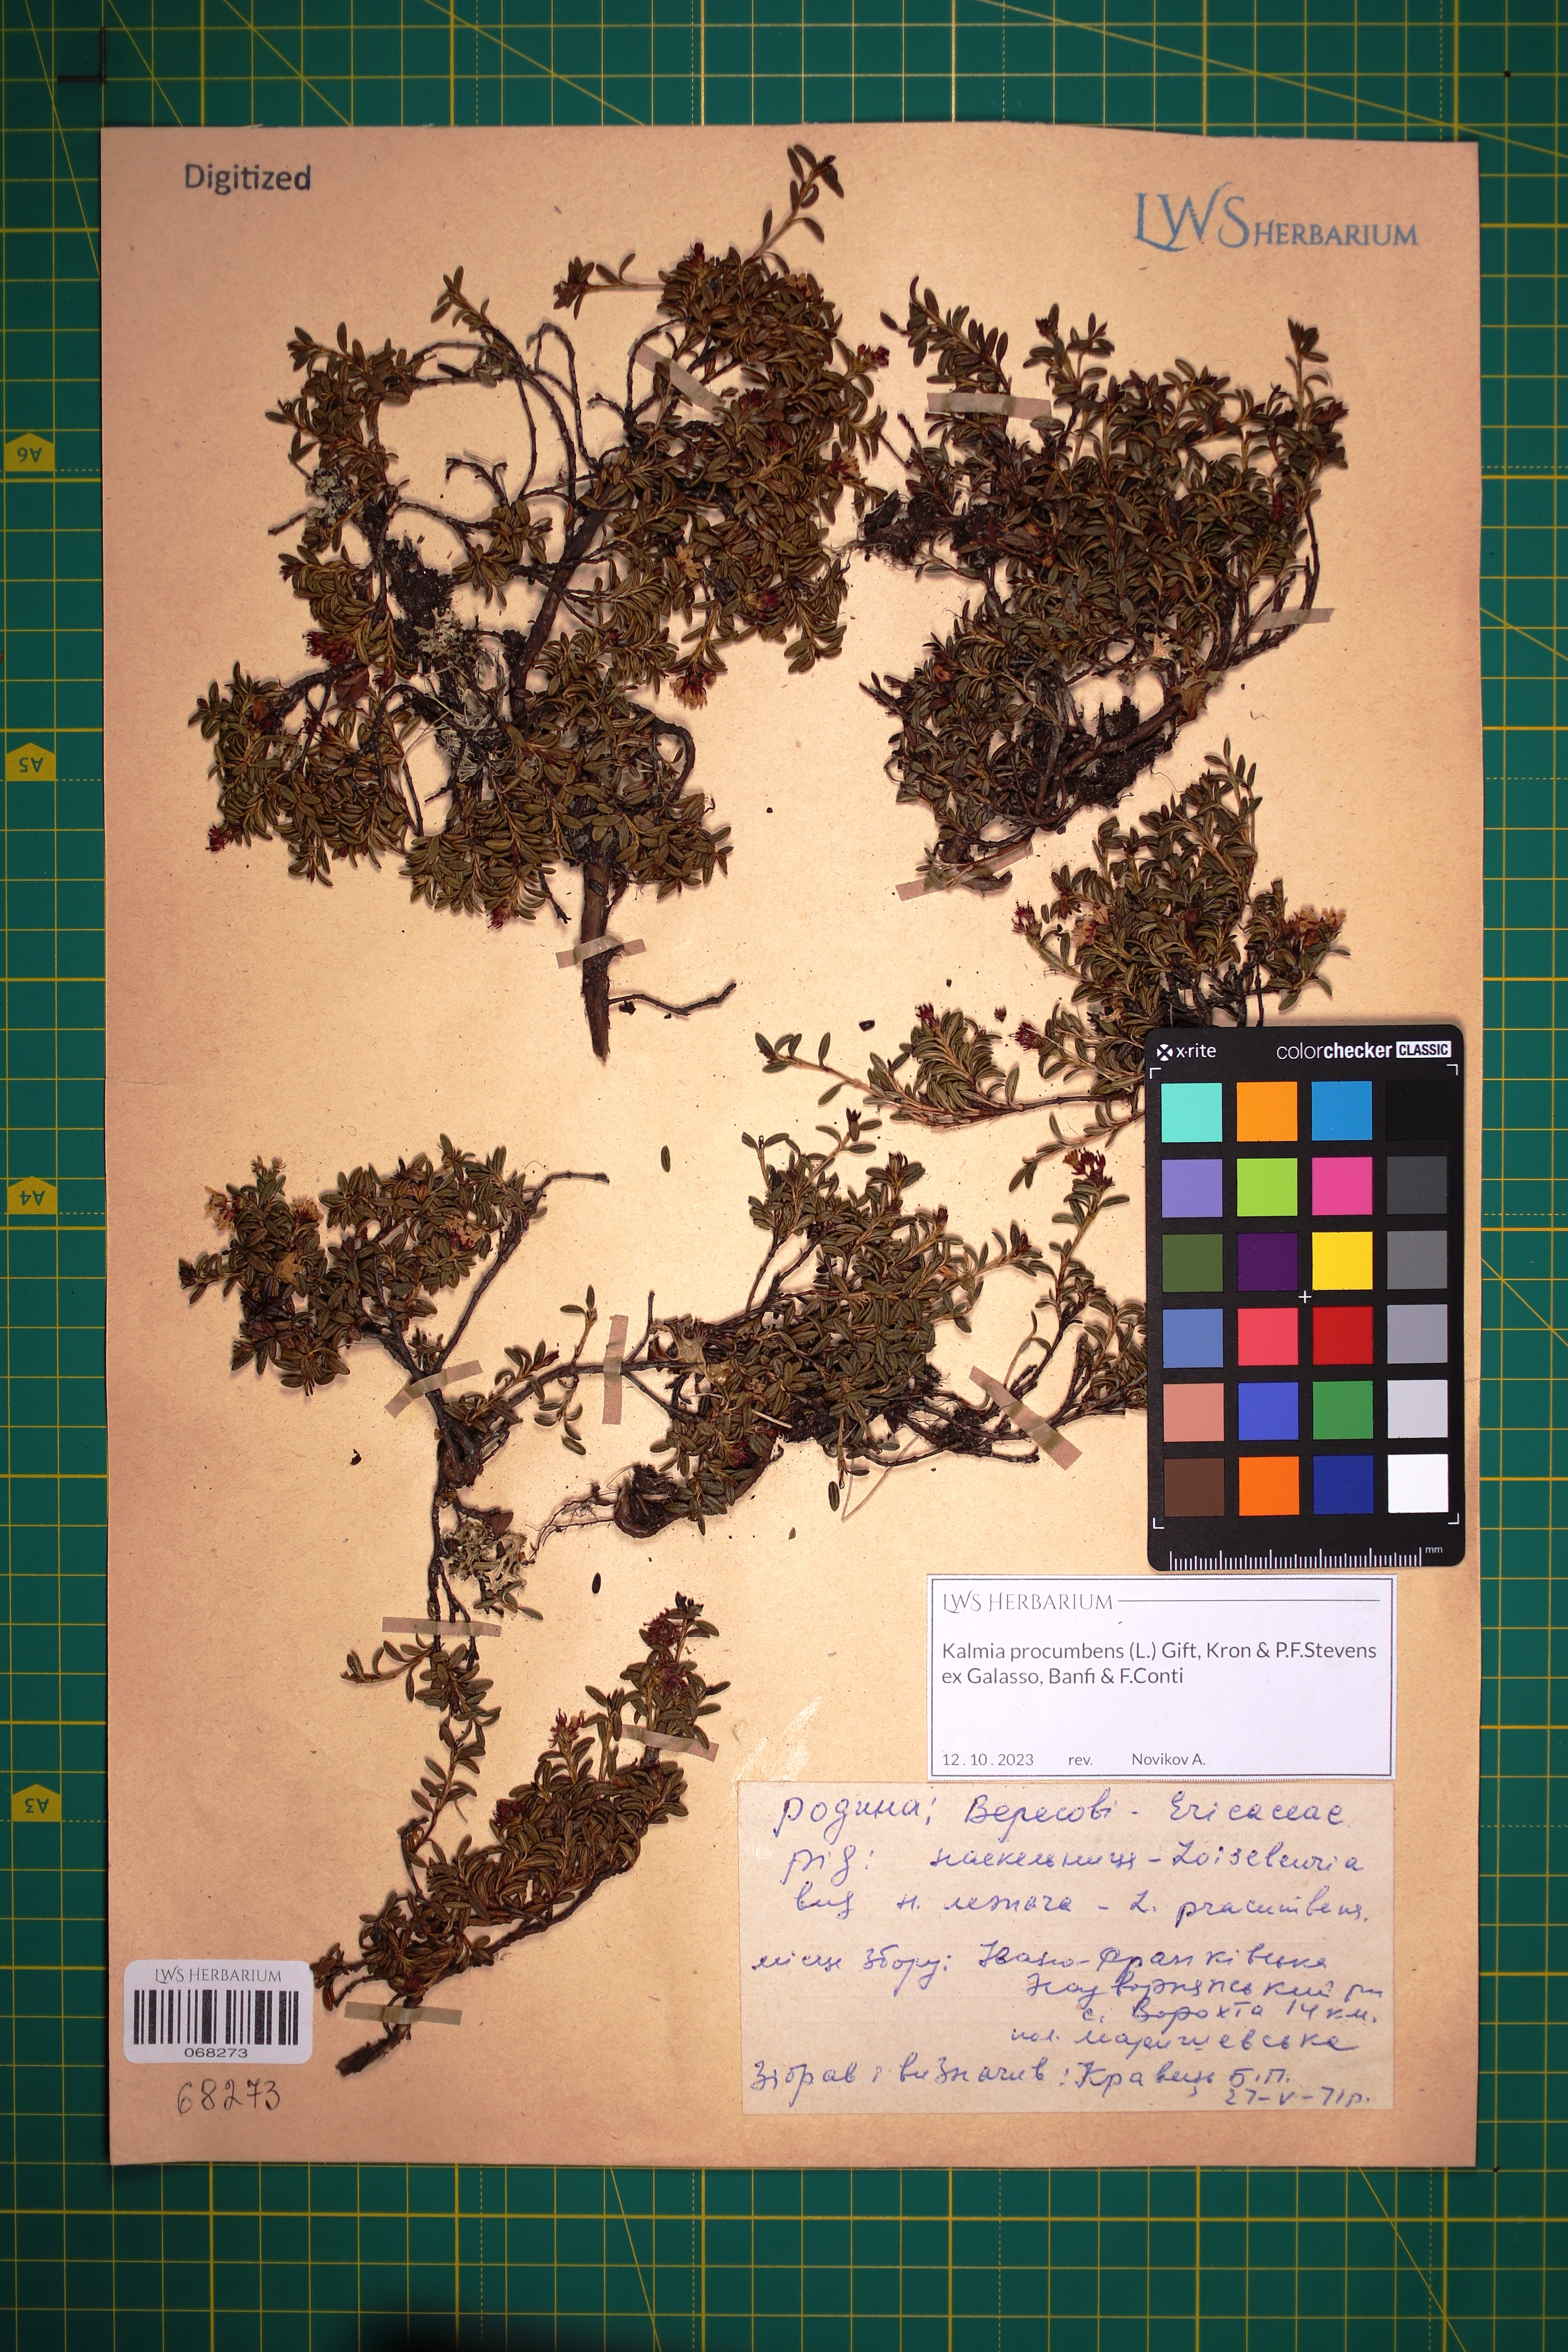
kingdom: Plantae
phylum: Tracheophyta
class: Magnoliopsida
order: Ericales
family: Ericaceae
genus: Kalmia
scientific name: Kalmia procumbens
